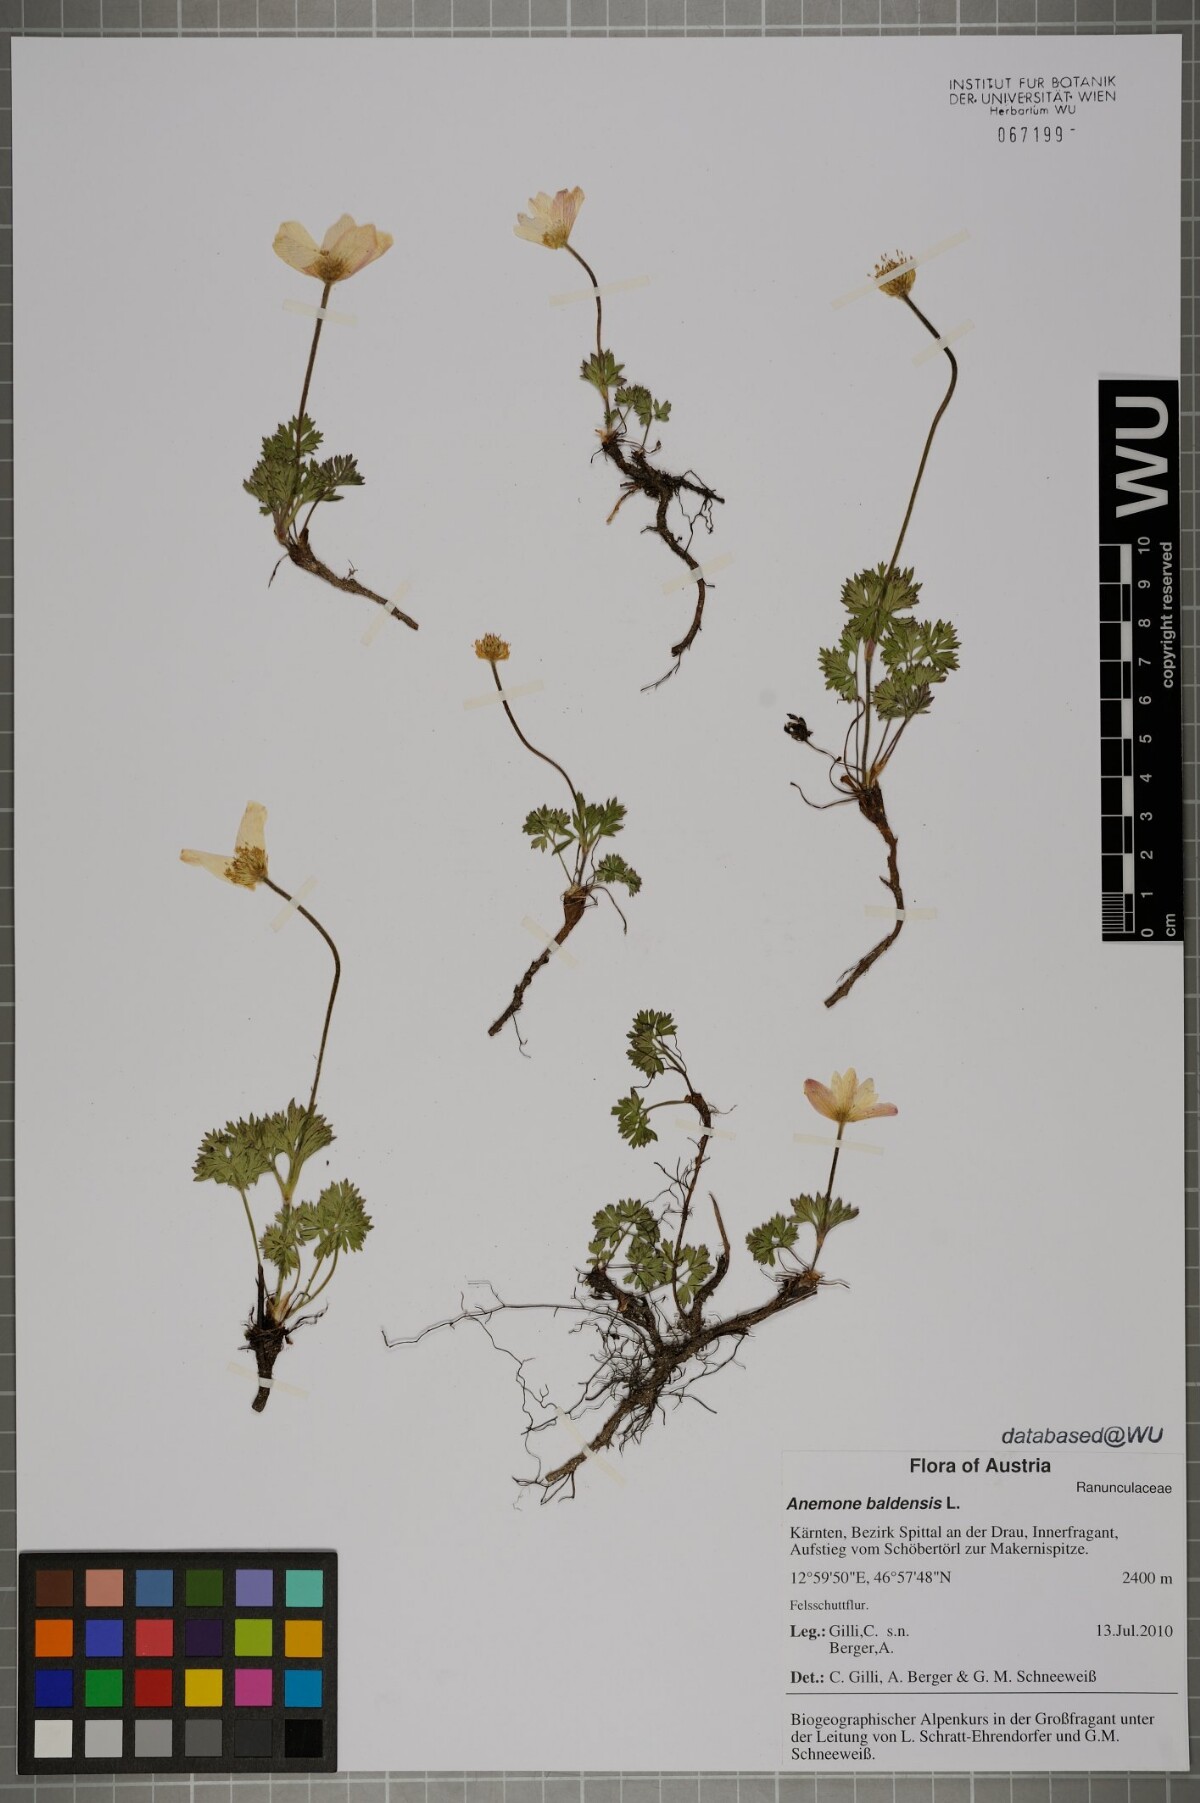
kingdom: Plantae
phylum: Tracheophyta
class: Magnoliopsida
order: Ranunculales
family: Ranunculaceae
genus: Anemone
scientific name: Anemone baldensis
